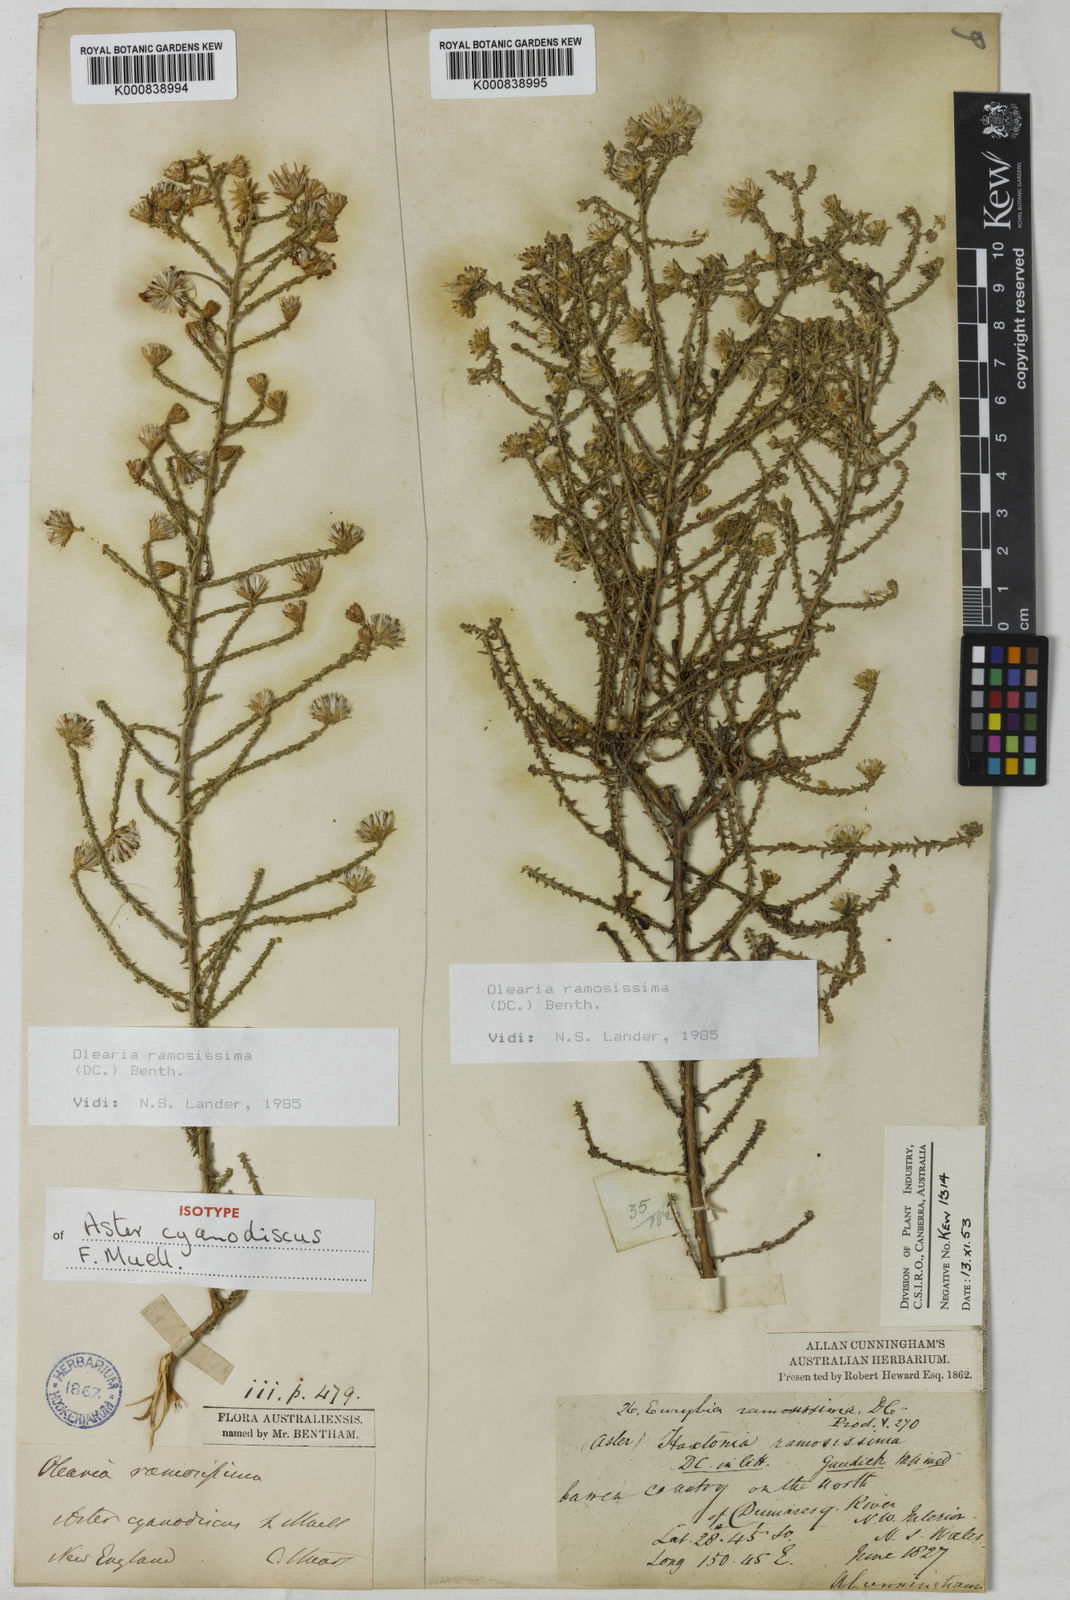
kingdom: Plantae
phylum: Tracheophyta
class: Magnoliopsida
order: Asterales
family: Asteraceae
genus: Olearia
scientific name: Olearia ramosissima
